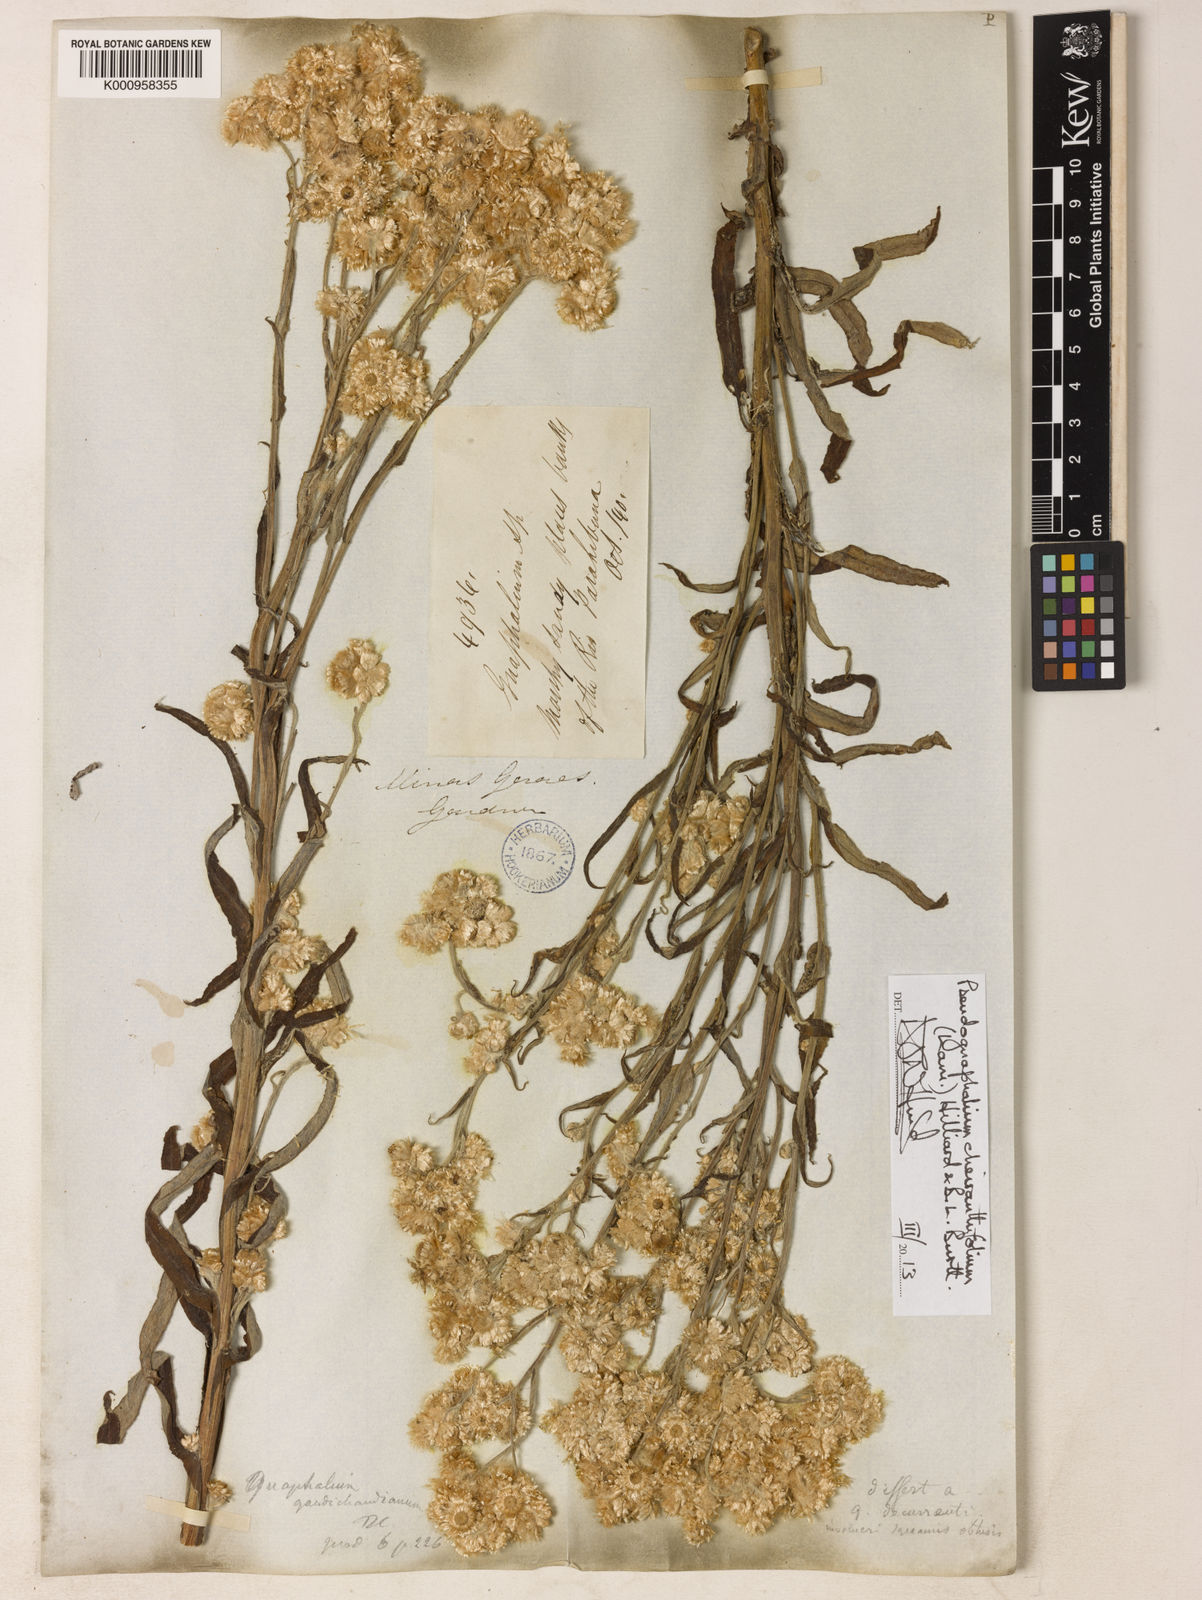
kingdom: Plantae
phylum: Tracheophyta
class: Magnoliopsida
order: Asterales
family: Asteraceae
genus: Pseudognaphalium
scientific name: Pseudognaphalium cheiranthifolium
